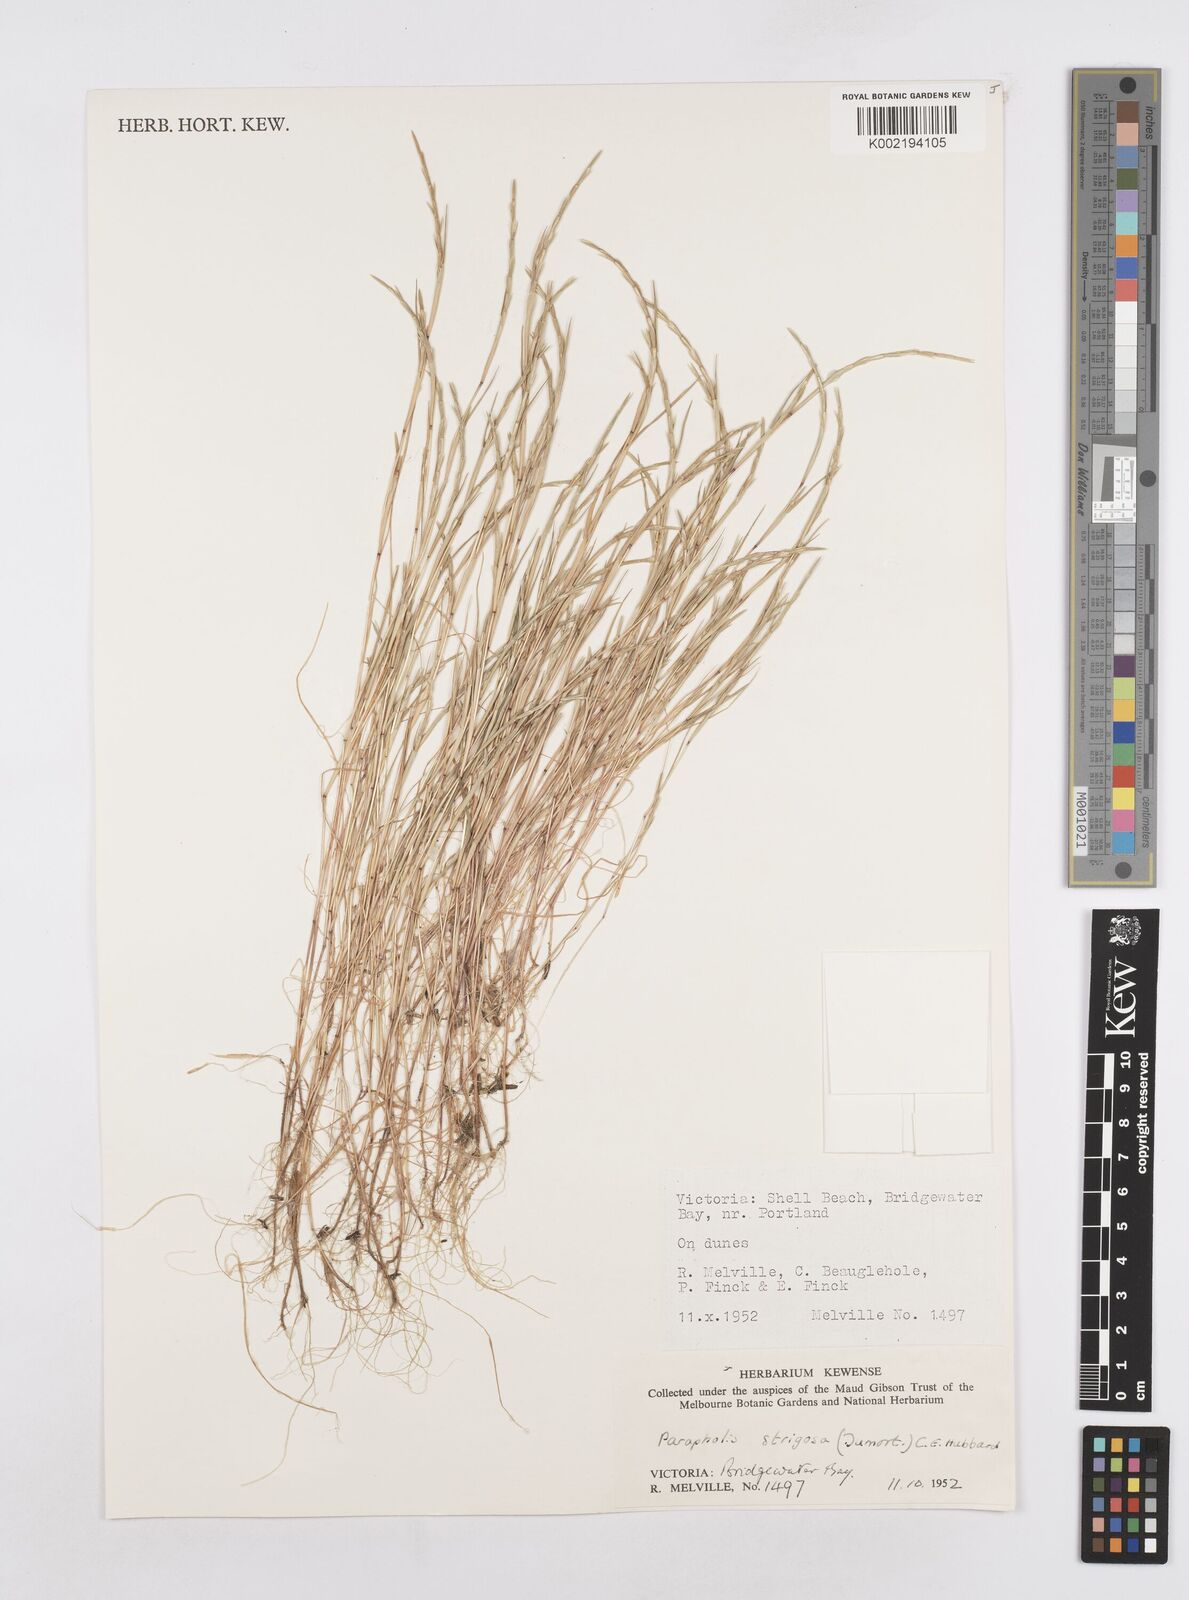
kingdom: Plantae
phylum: Tracheophyta
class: Liliopsida
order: Poales
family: Poaceae
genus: Parapholis
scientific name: Parapholis strigosa
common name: Hard-grass
